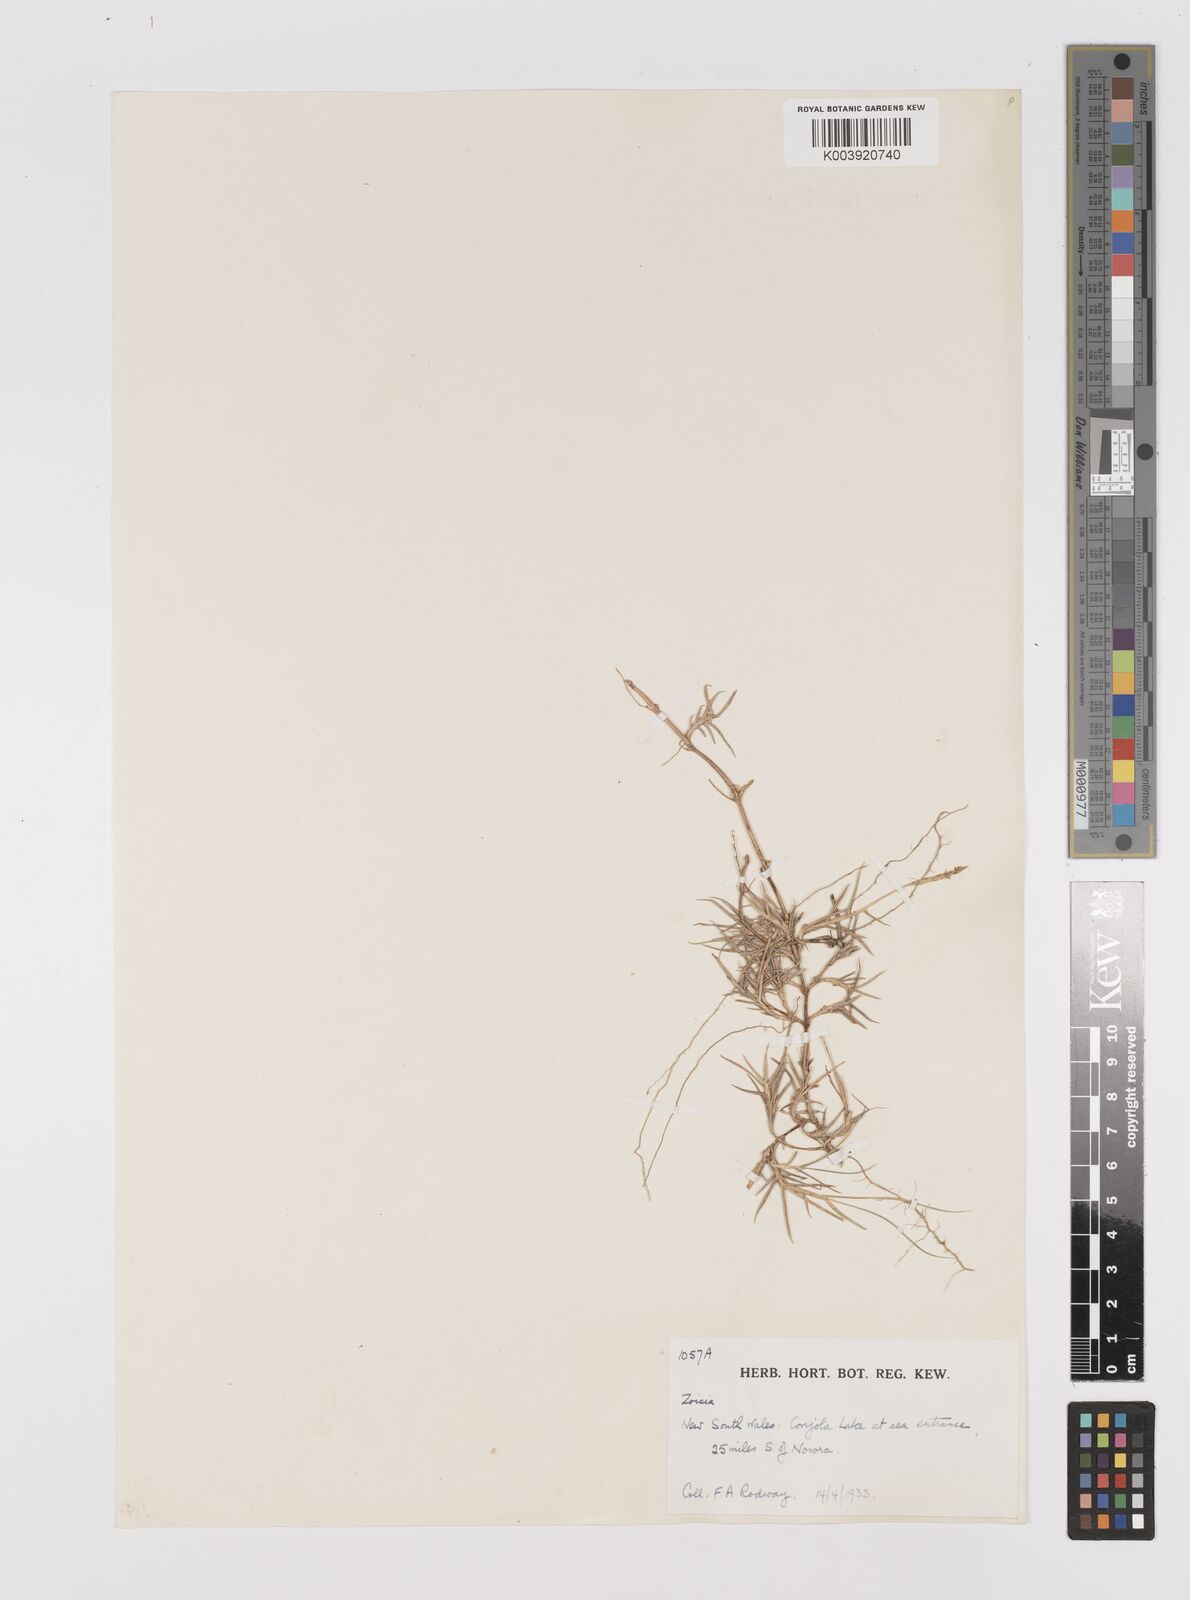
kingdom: Plantae
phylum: Tracheophyta
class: Liliopsida
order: Poales
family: Poaceae
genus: Zoysia
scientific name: Zoysia
